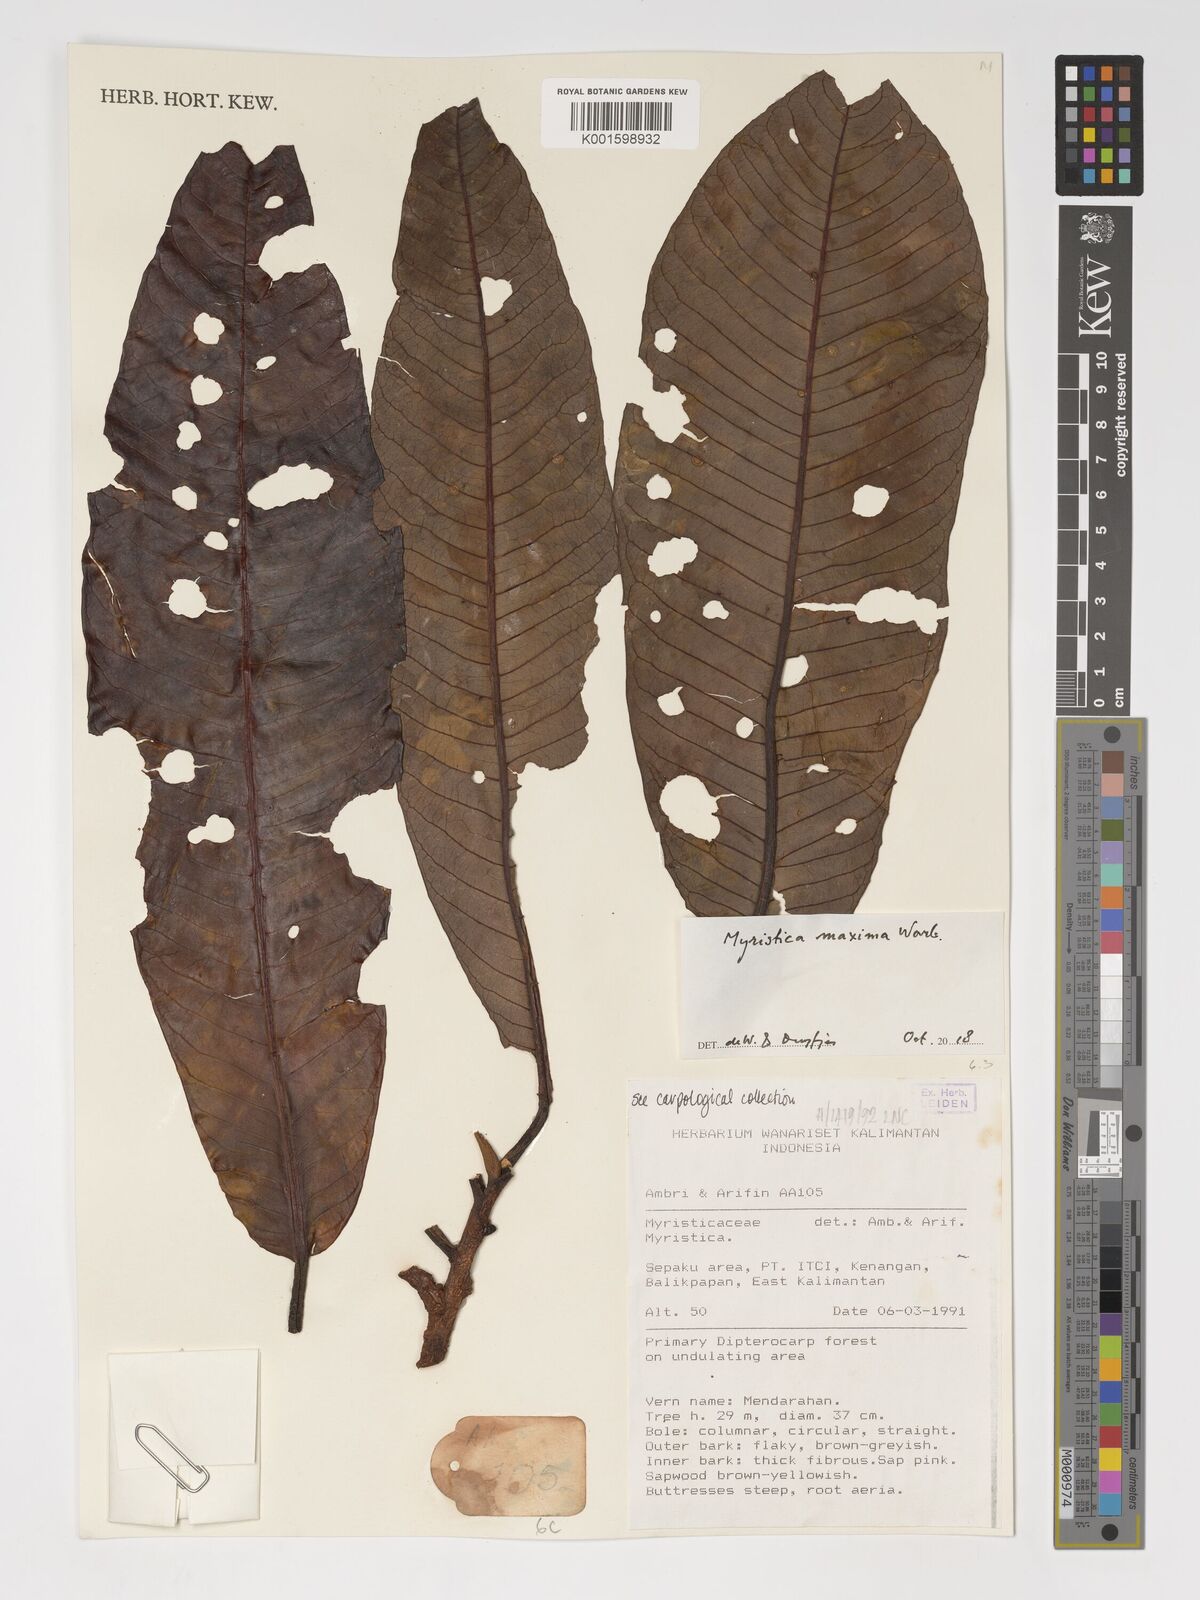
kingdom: Plantae
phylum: Tracheophyta
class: Magnoliopsida
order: Magnoliales
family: Myristicaceae
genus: Myristica
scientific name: Myristica maxima
